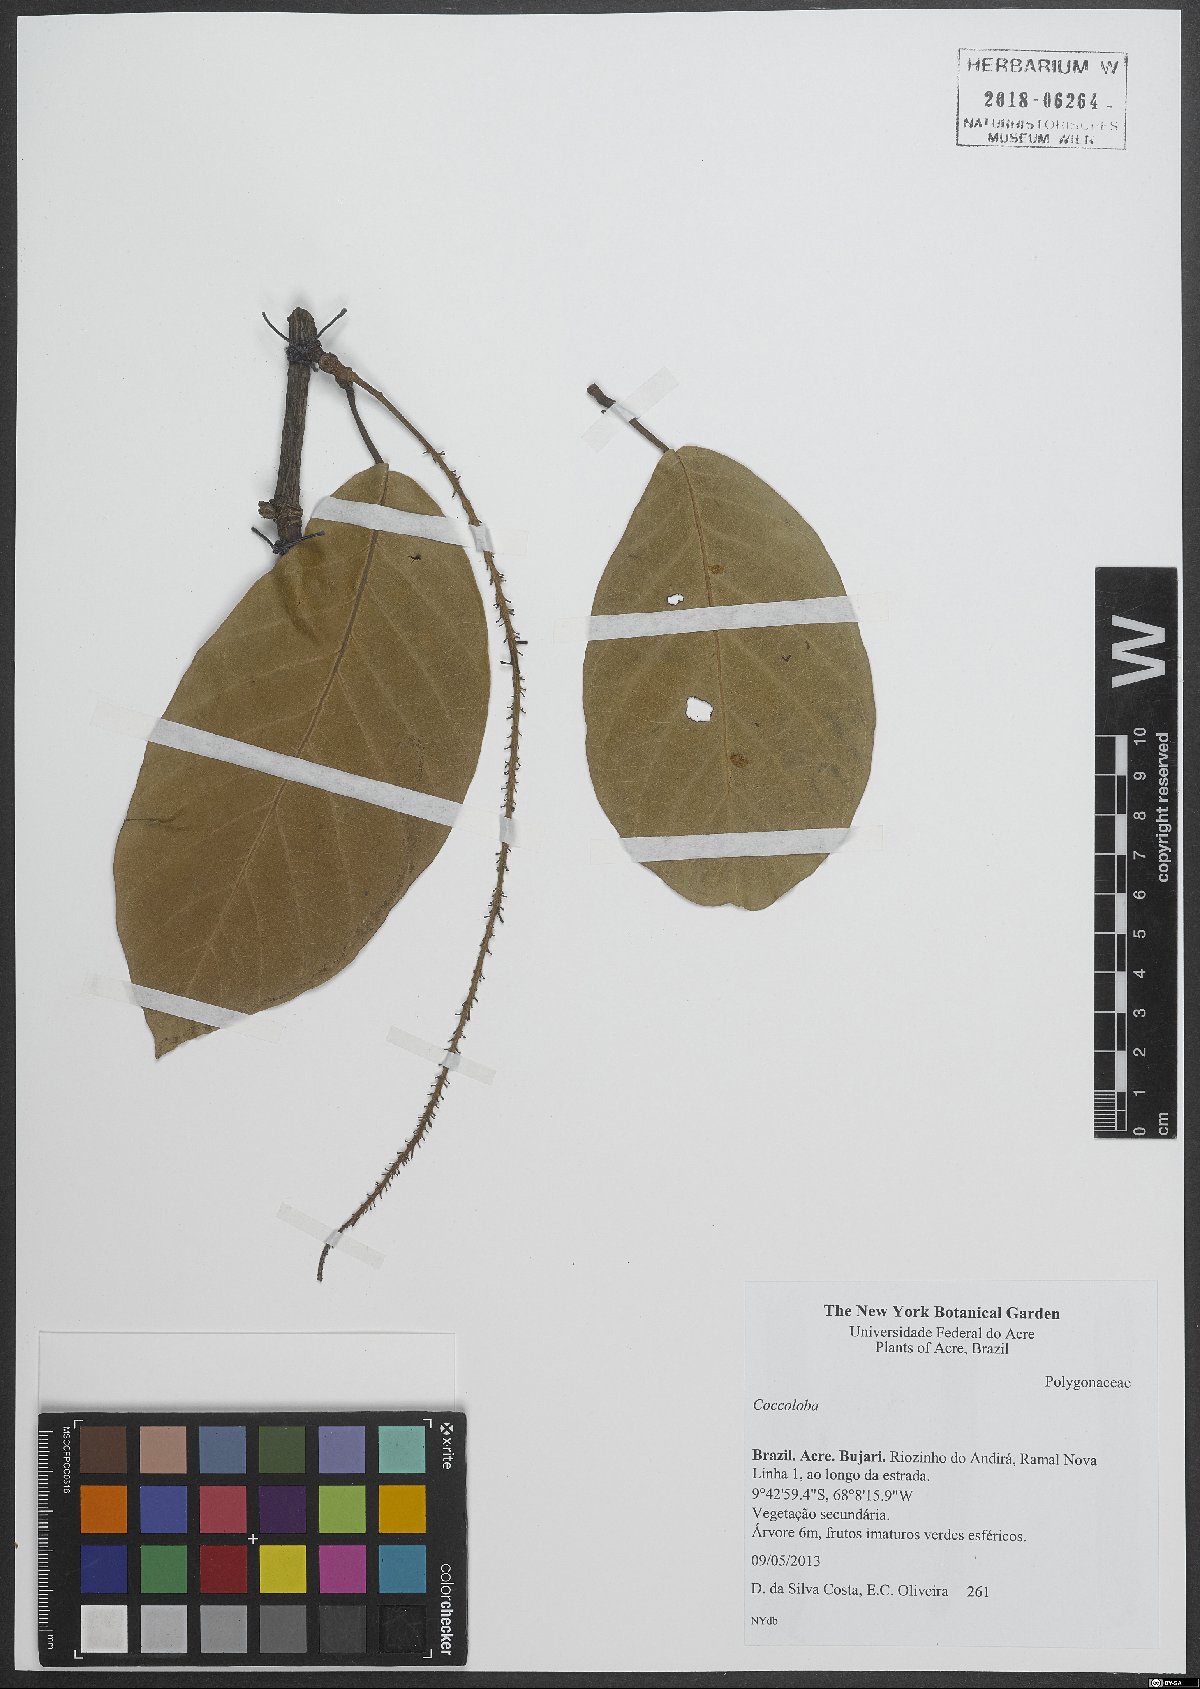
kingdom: Plantae
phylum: Tracheophyta
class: Magnoliopsida
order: Caryophyllales
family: Polygonaceae
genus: Coccoloba
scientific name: Coccoloba
